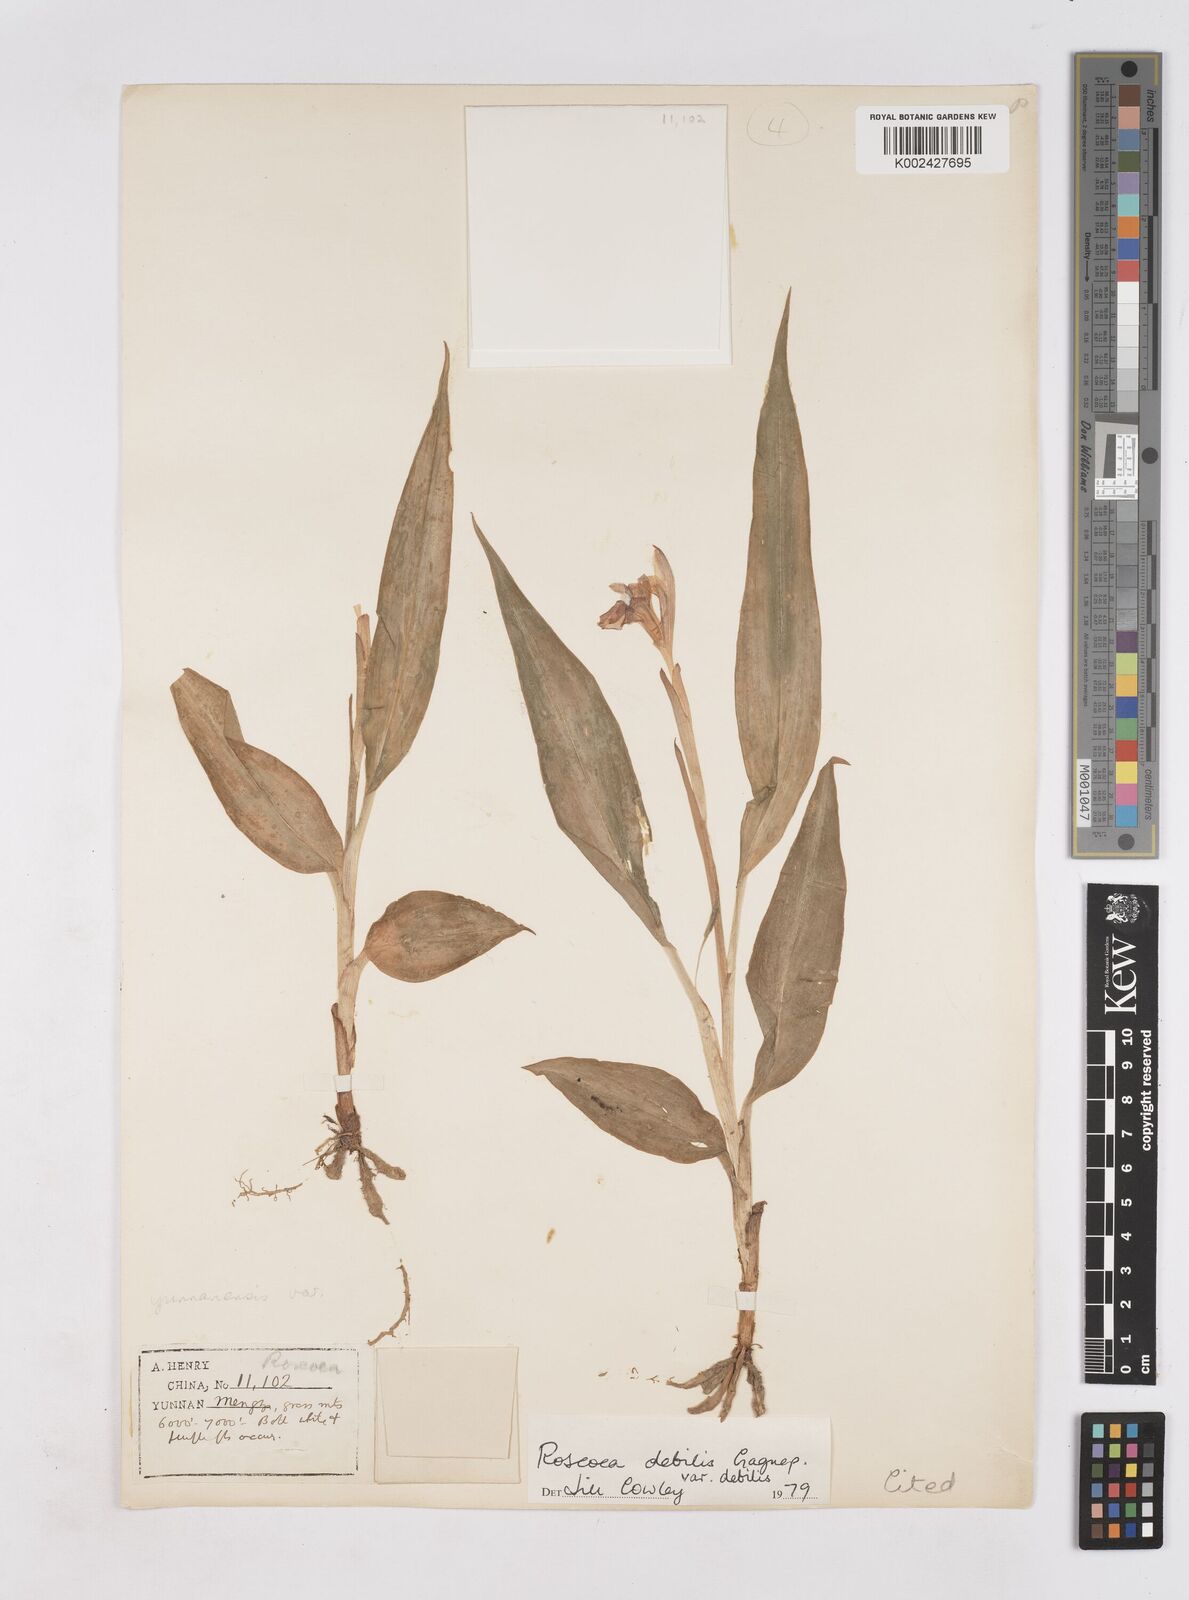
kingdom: Plantae
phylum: Tracheophyta
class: Liliopsida
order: Zingiberales
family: Zingiberaceae
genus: Roscoea
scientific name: Roscoea debilis
